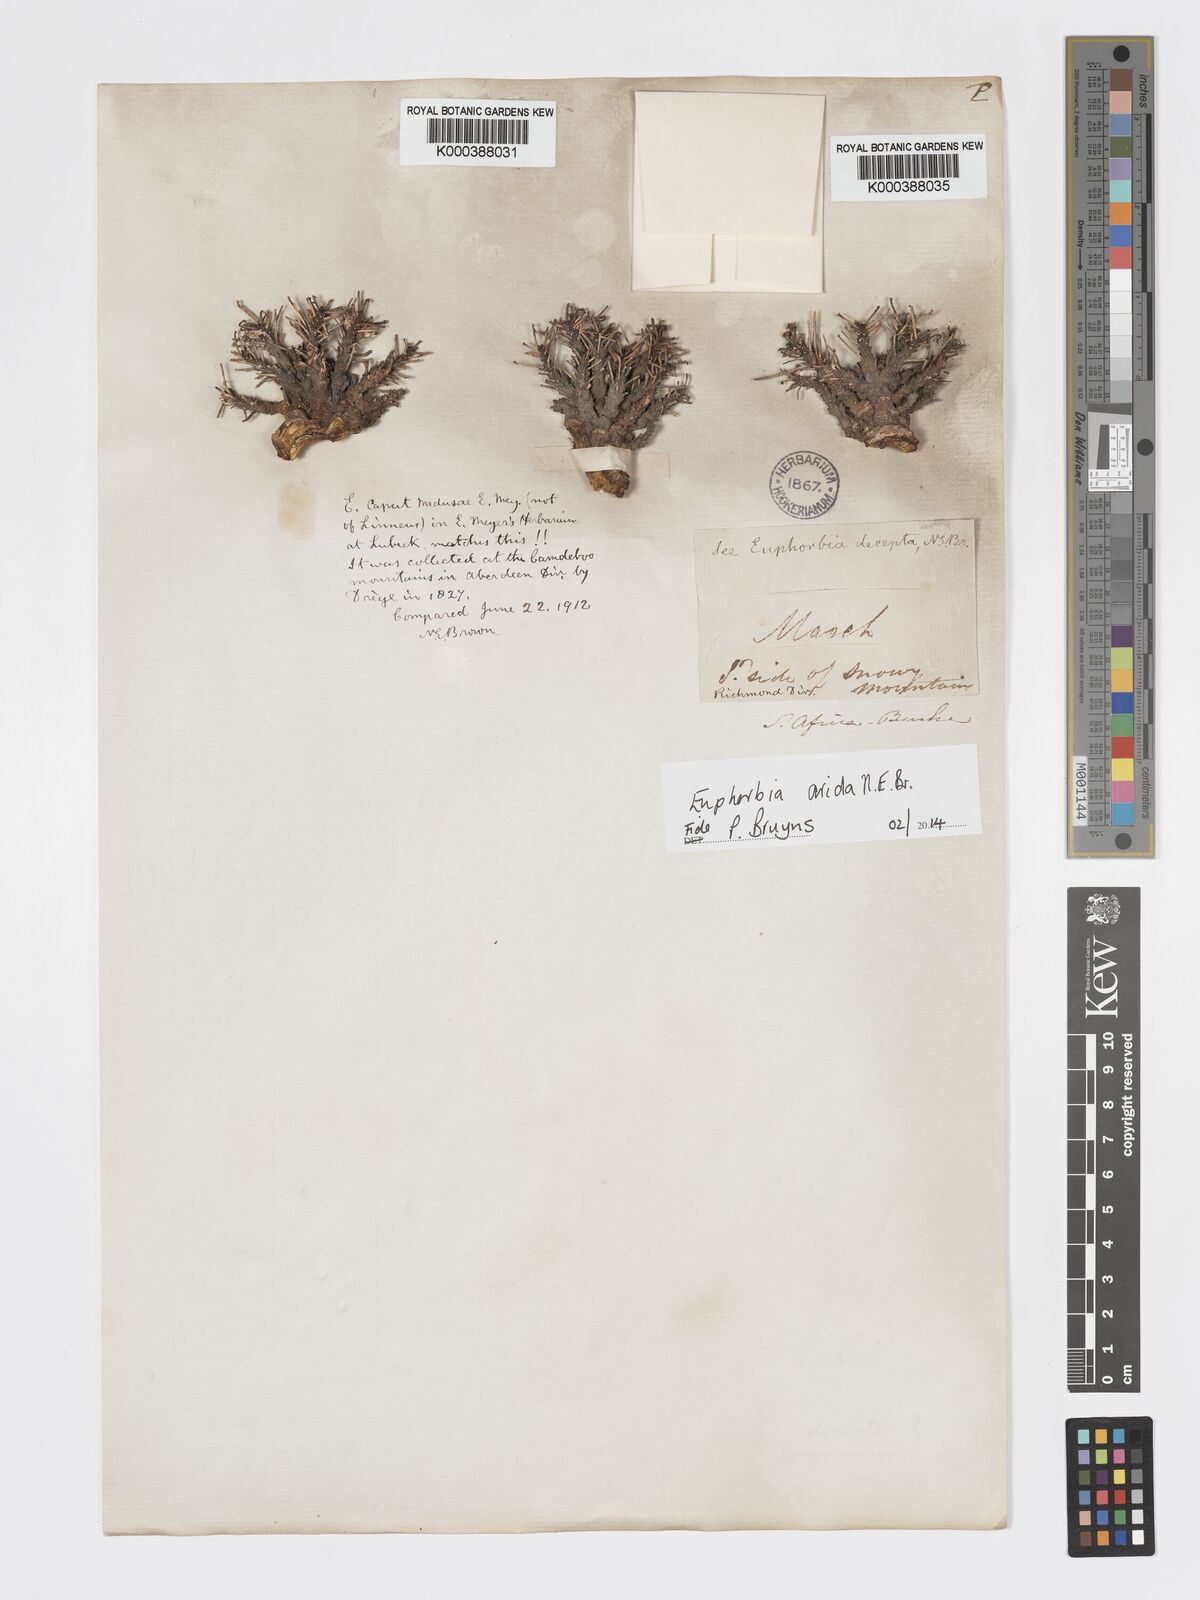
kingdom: Plantae
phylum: Tracheophyta
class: Magnoliopsida
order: Malpighiales
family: Euphorbiaceae
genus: Euphorbia
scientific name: Euphorbia arida
